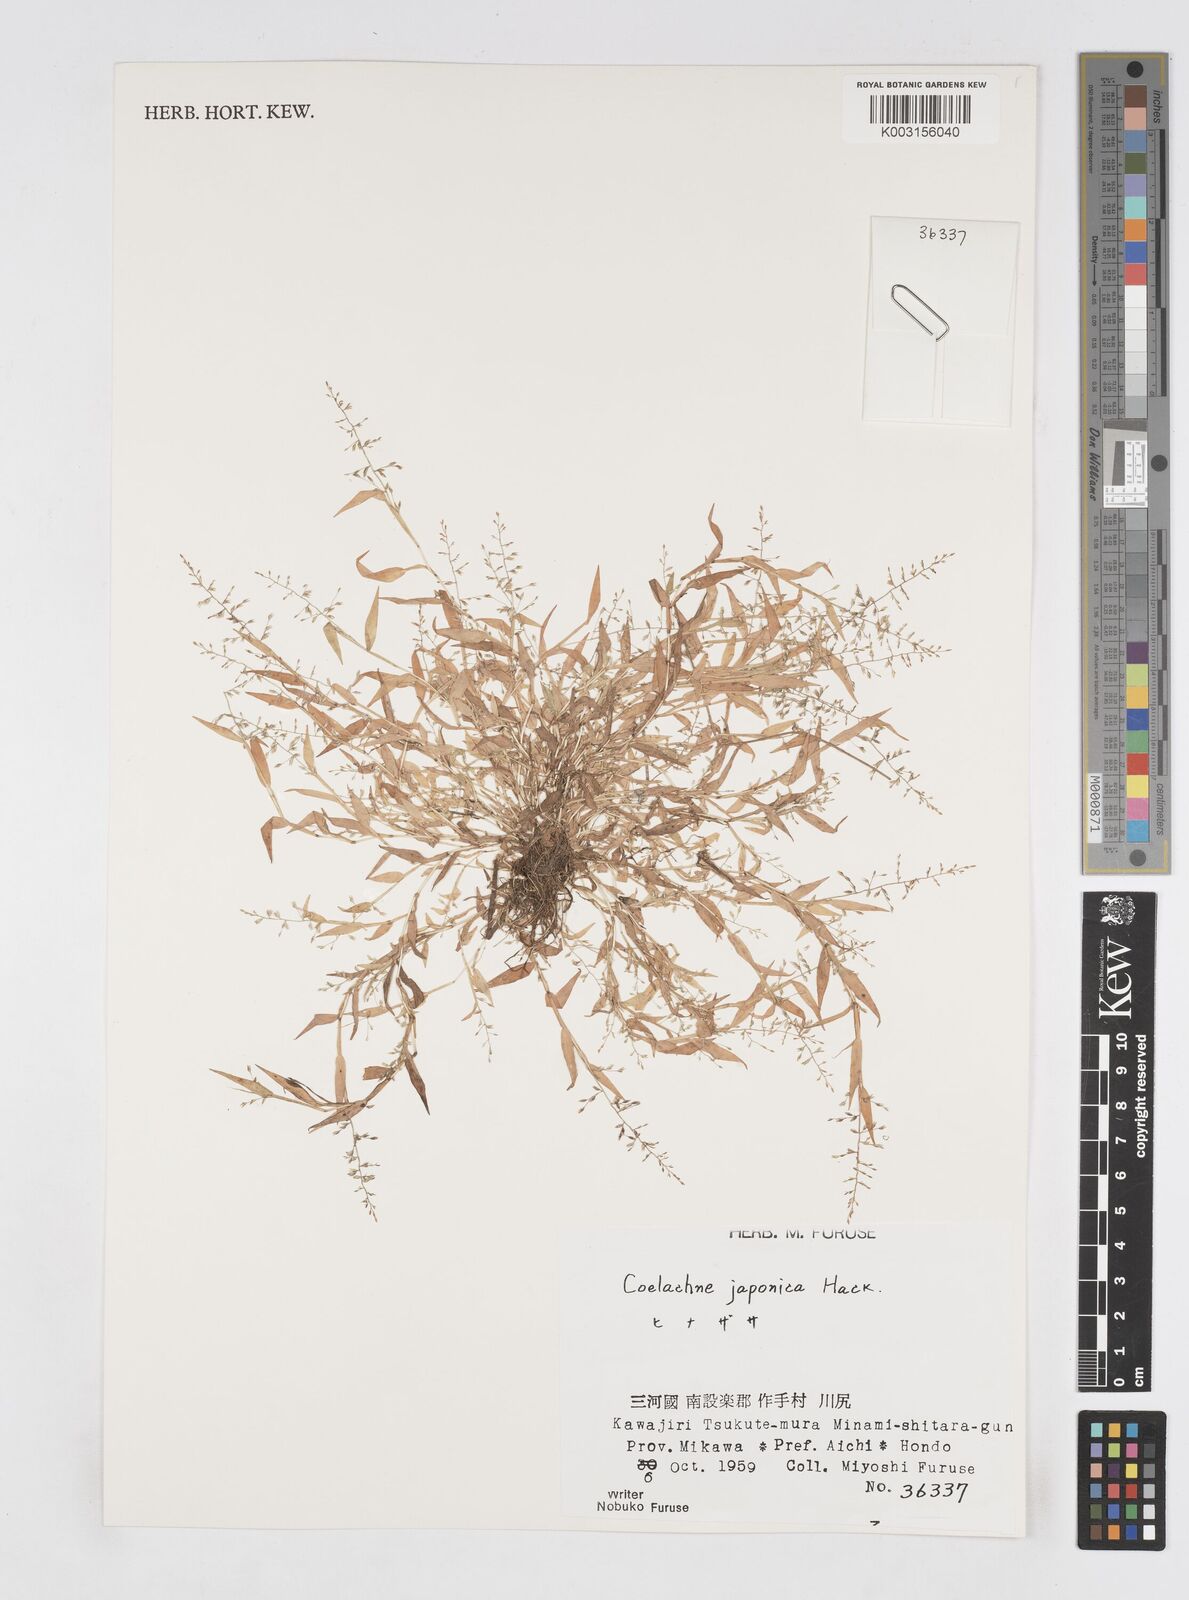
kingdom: Plantae
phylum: Tracheophyta
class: Liliopsida
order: Poales
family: Poaceae
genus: Coelachne
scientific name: Coelachne japonica
